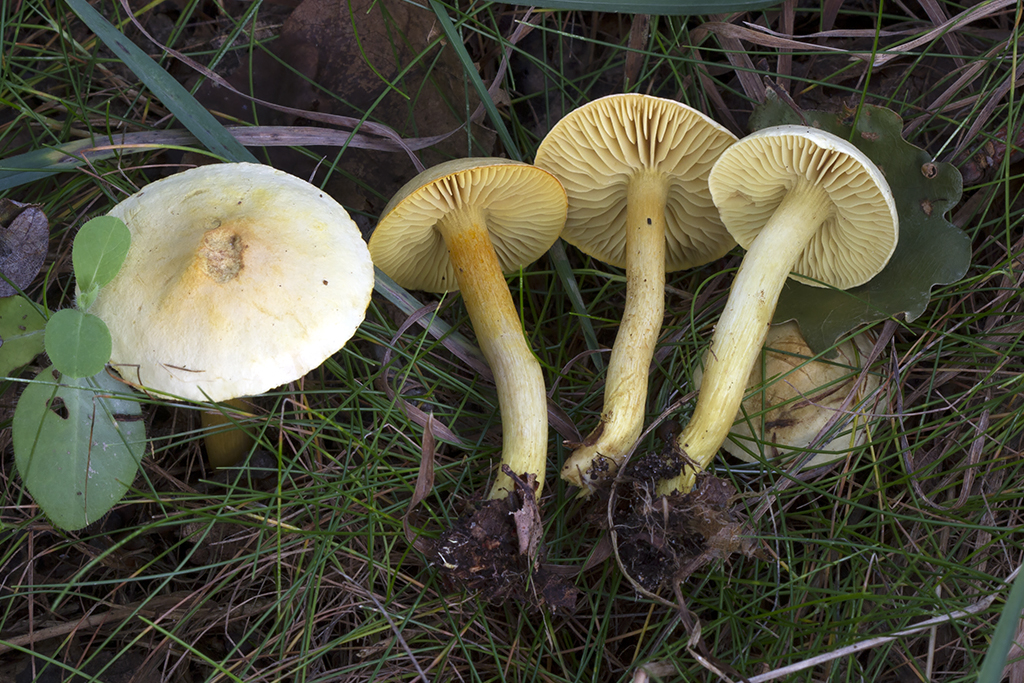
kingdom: Fungi
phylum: Basidiomycota
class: Agaricomycetes
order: Agaricales
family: Tricholomataceae
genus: Tricholoma
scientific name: Tricholoma sulphureum
